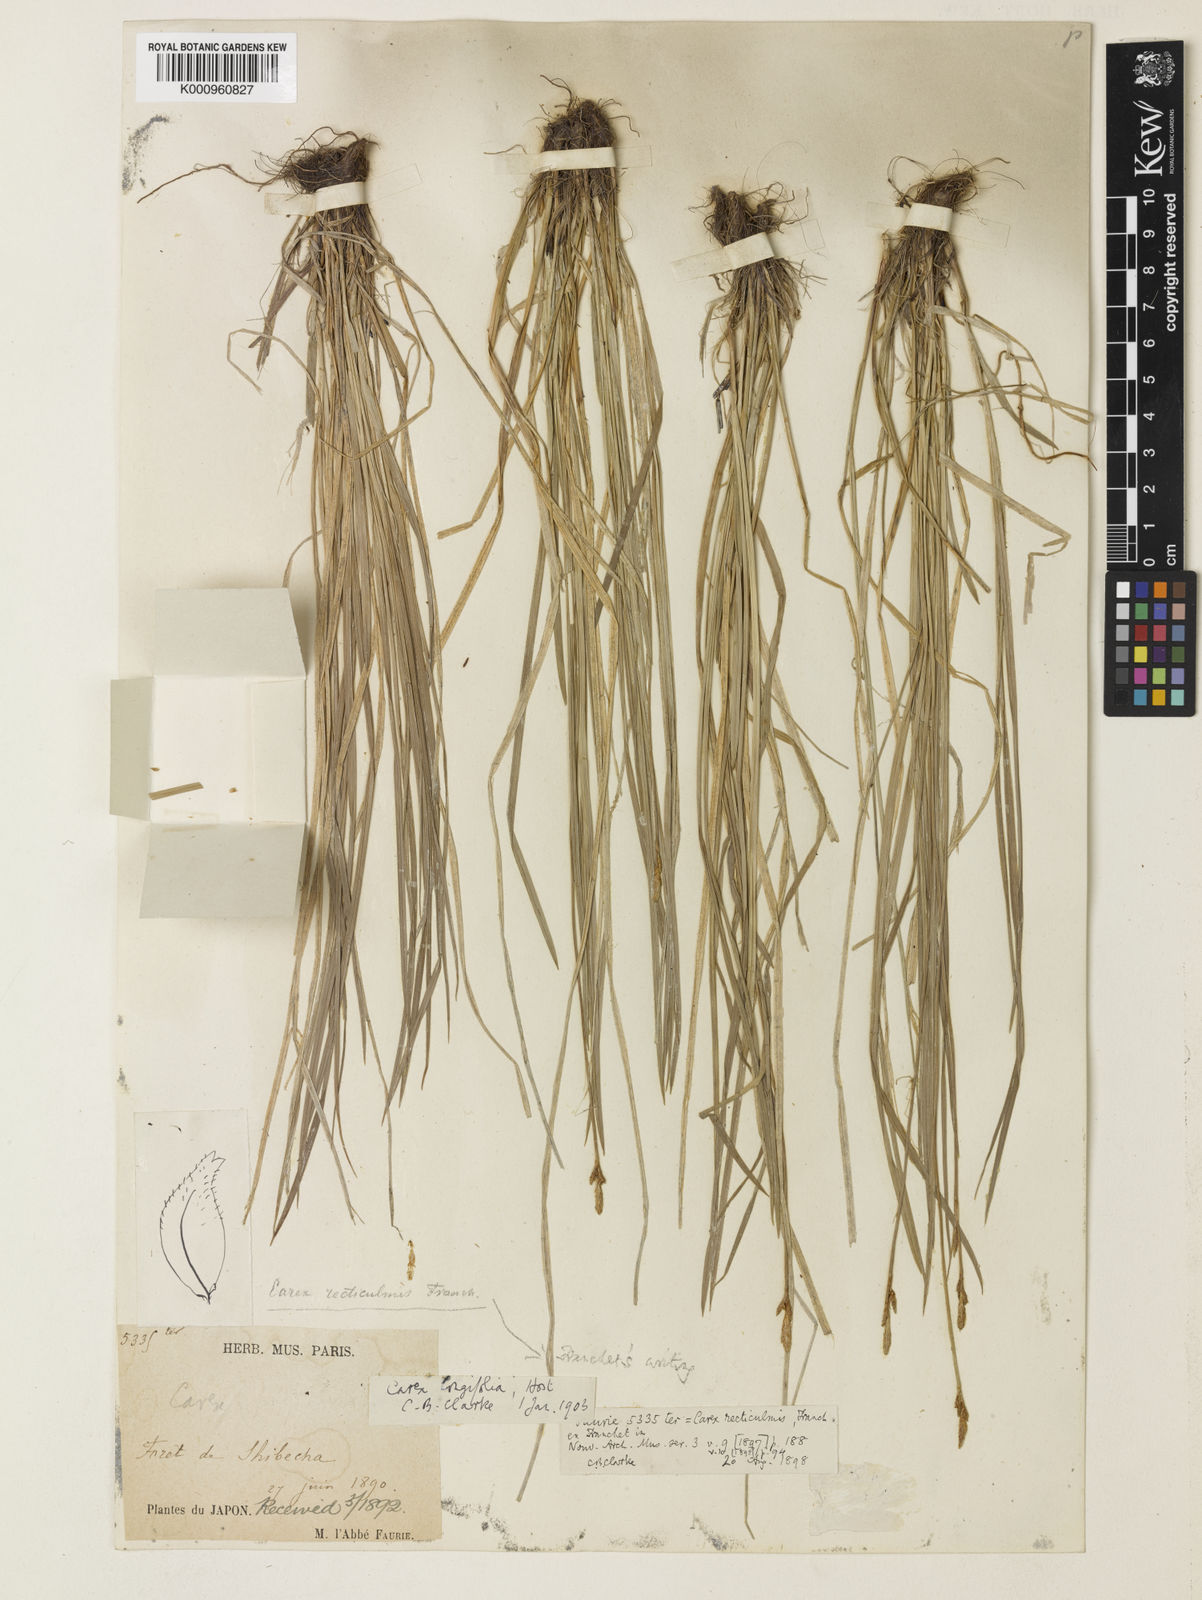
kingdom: Plantae
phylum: Tracheophyta
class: Liliopsida
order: Poales
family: Cyperaceae
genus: Carex
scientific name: Carex umbrosa
